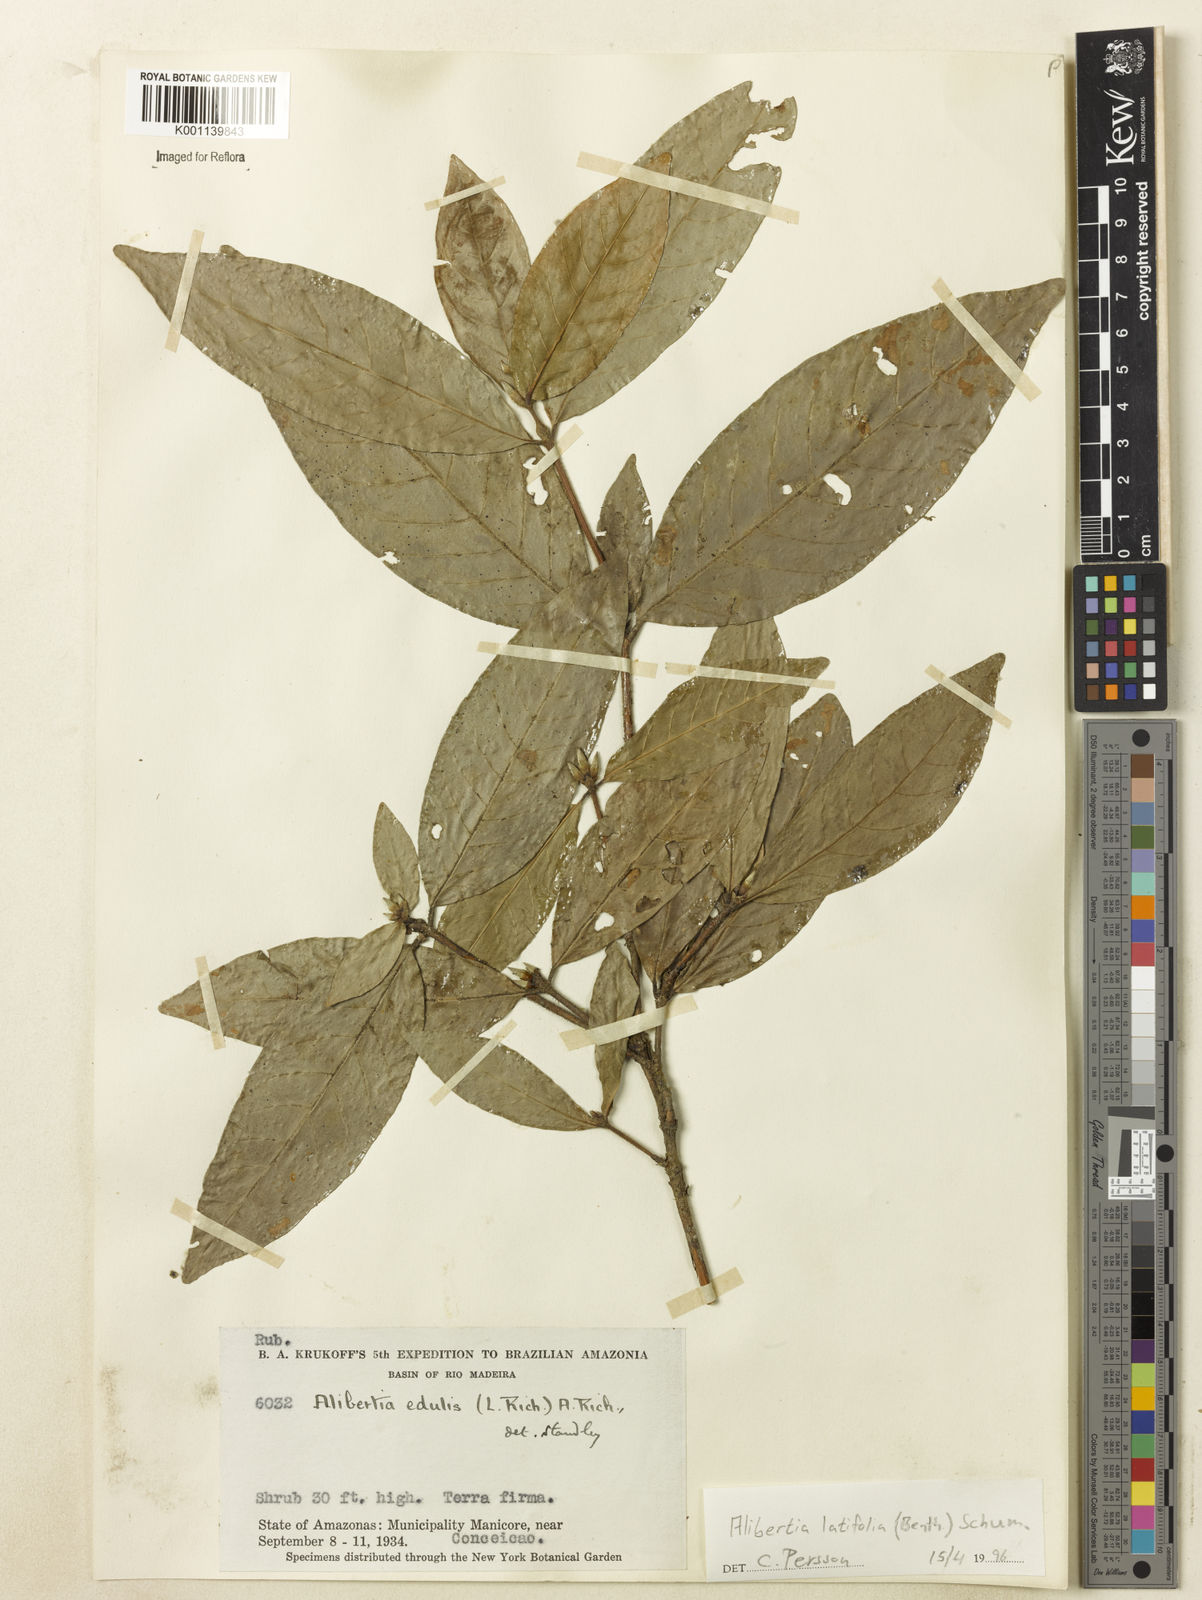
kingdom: Plantae
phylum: Tracheophyta
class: Magnoliopsida
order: Gentianales
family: Rubiaceae
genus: Alibertia
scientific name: Alibertia latifolia
